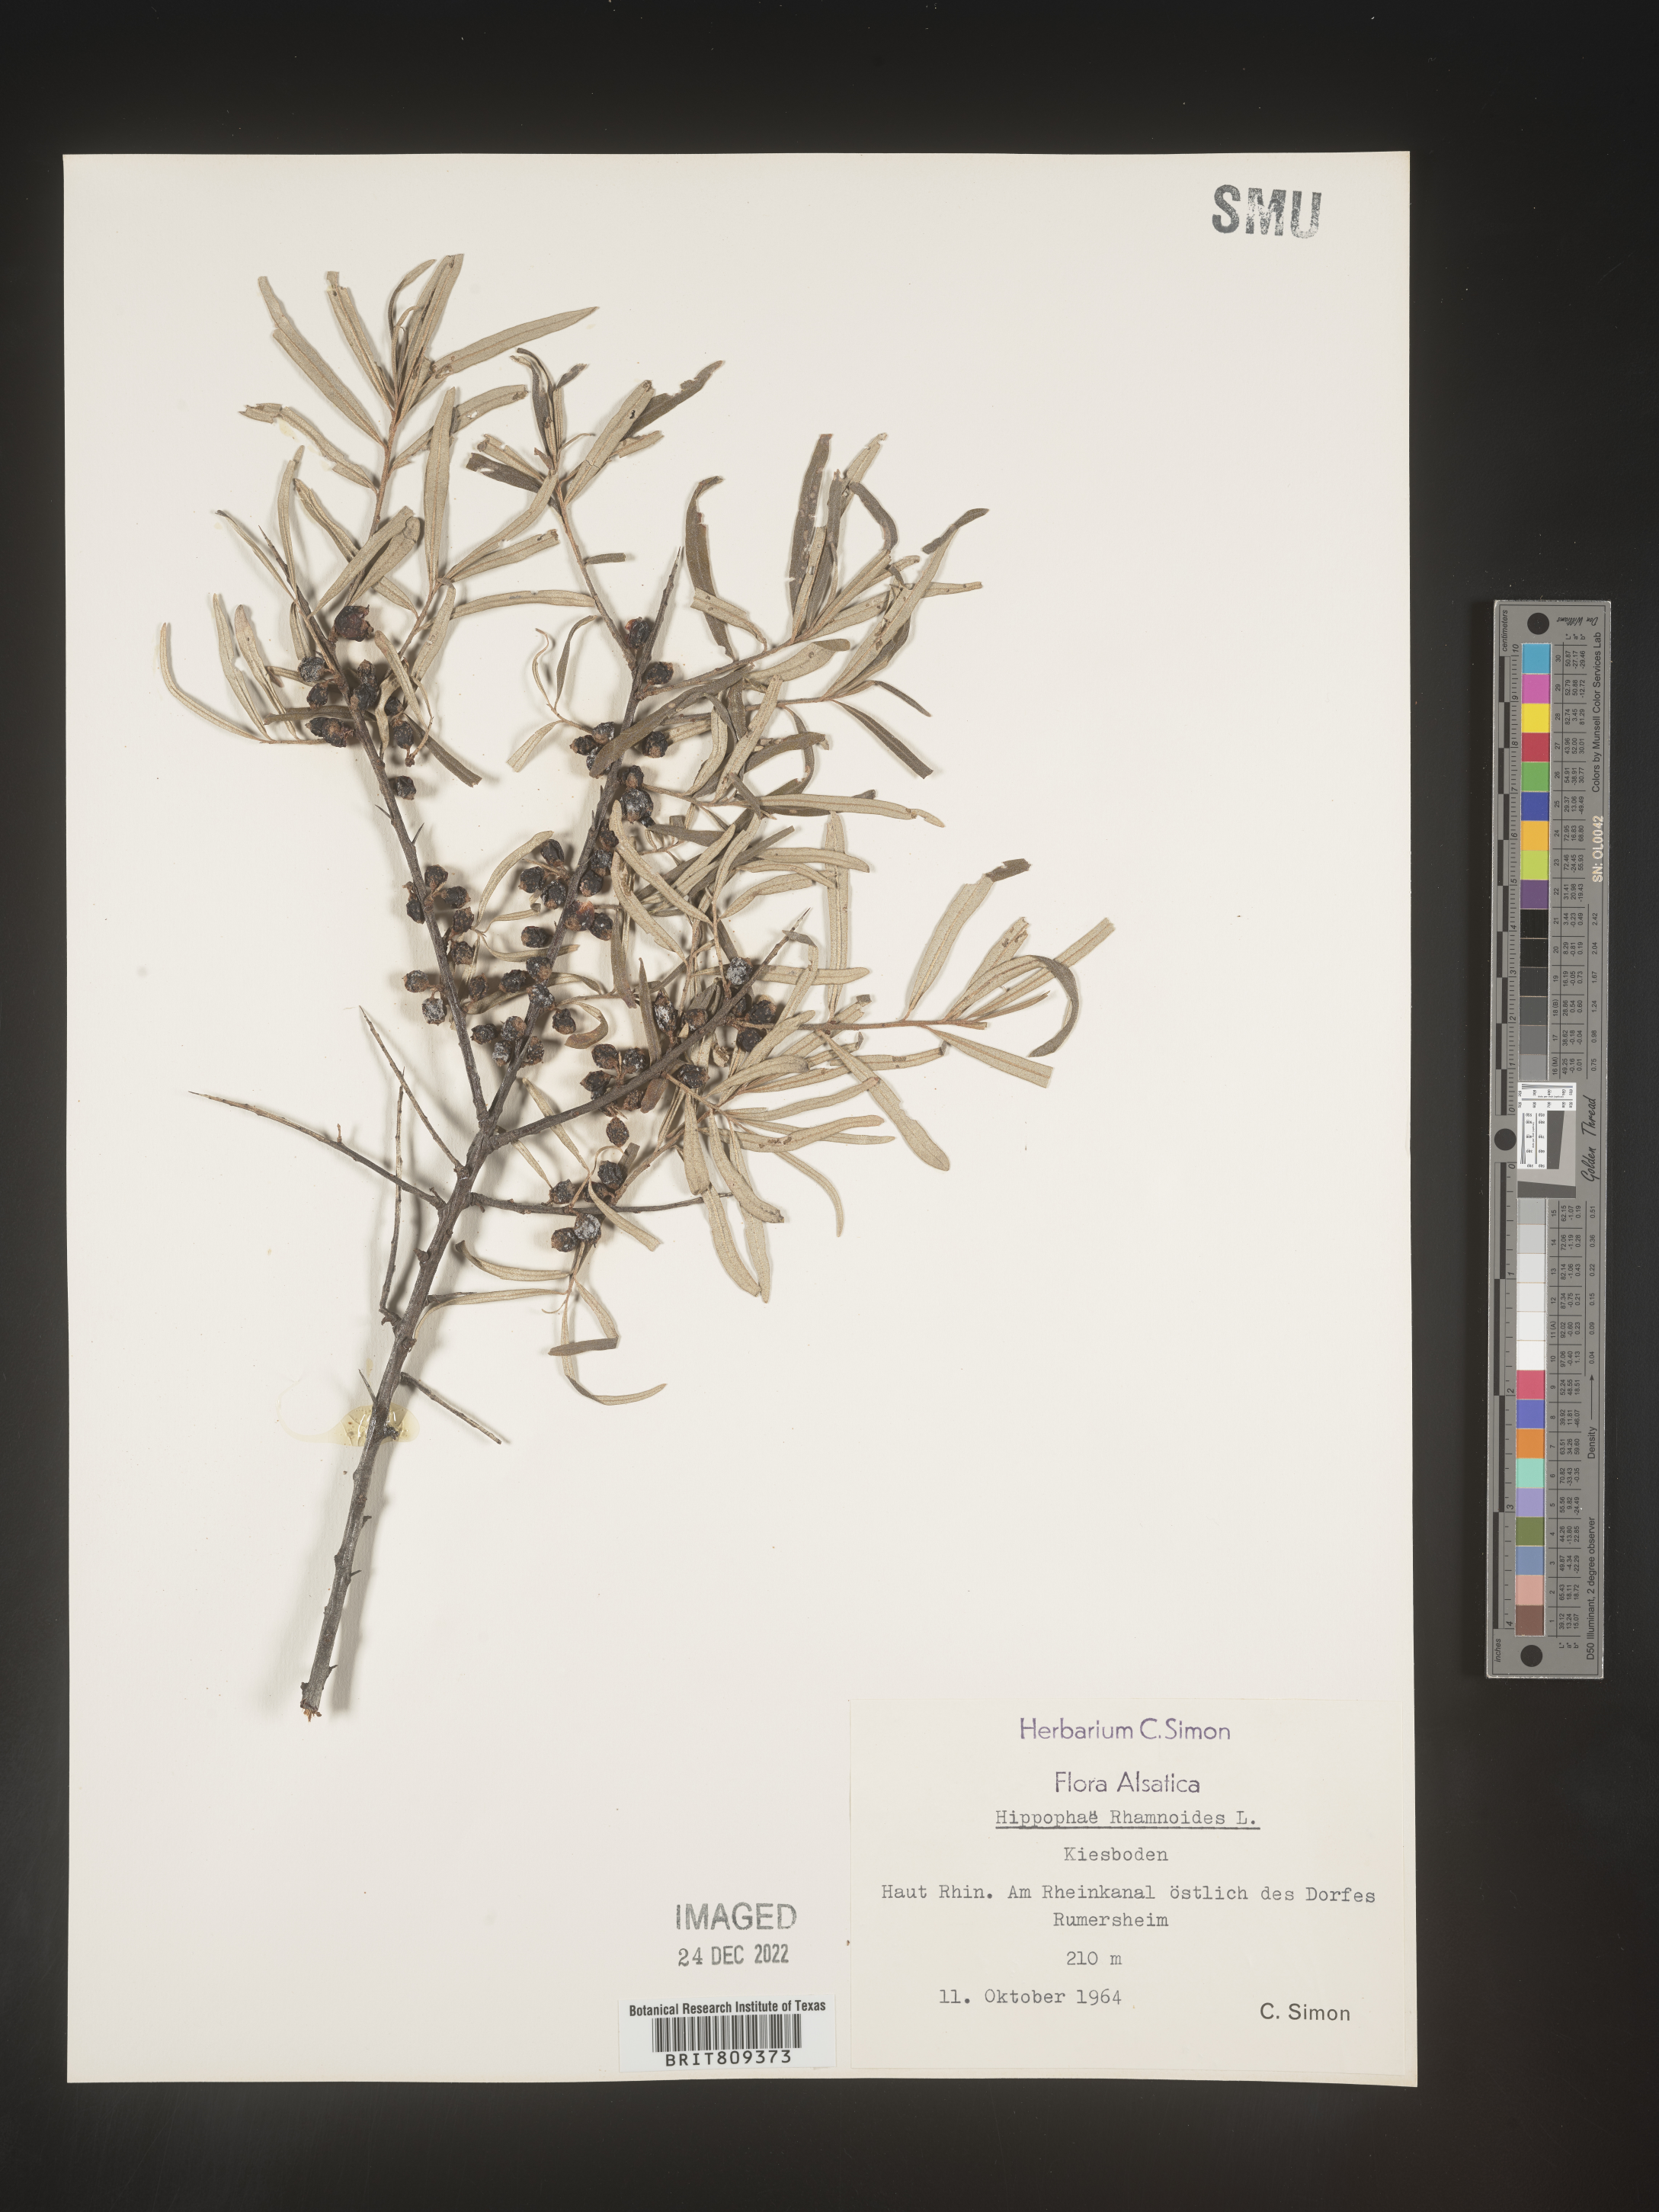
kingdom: Plantae
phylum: Tracheophyta
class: Magnoliopsida
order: Rosales
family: Elaeagnaceae
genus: Hippophae
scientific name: Hippophae
